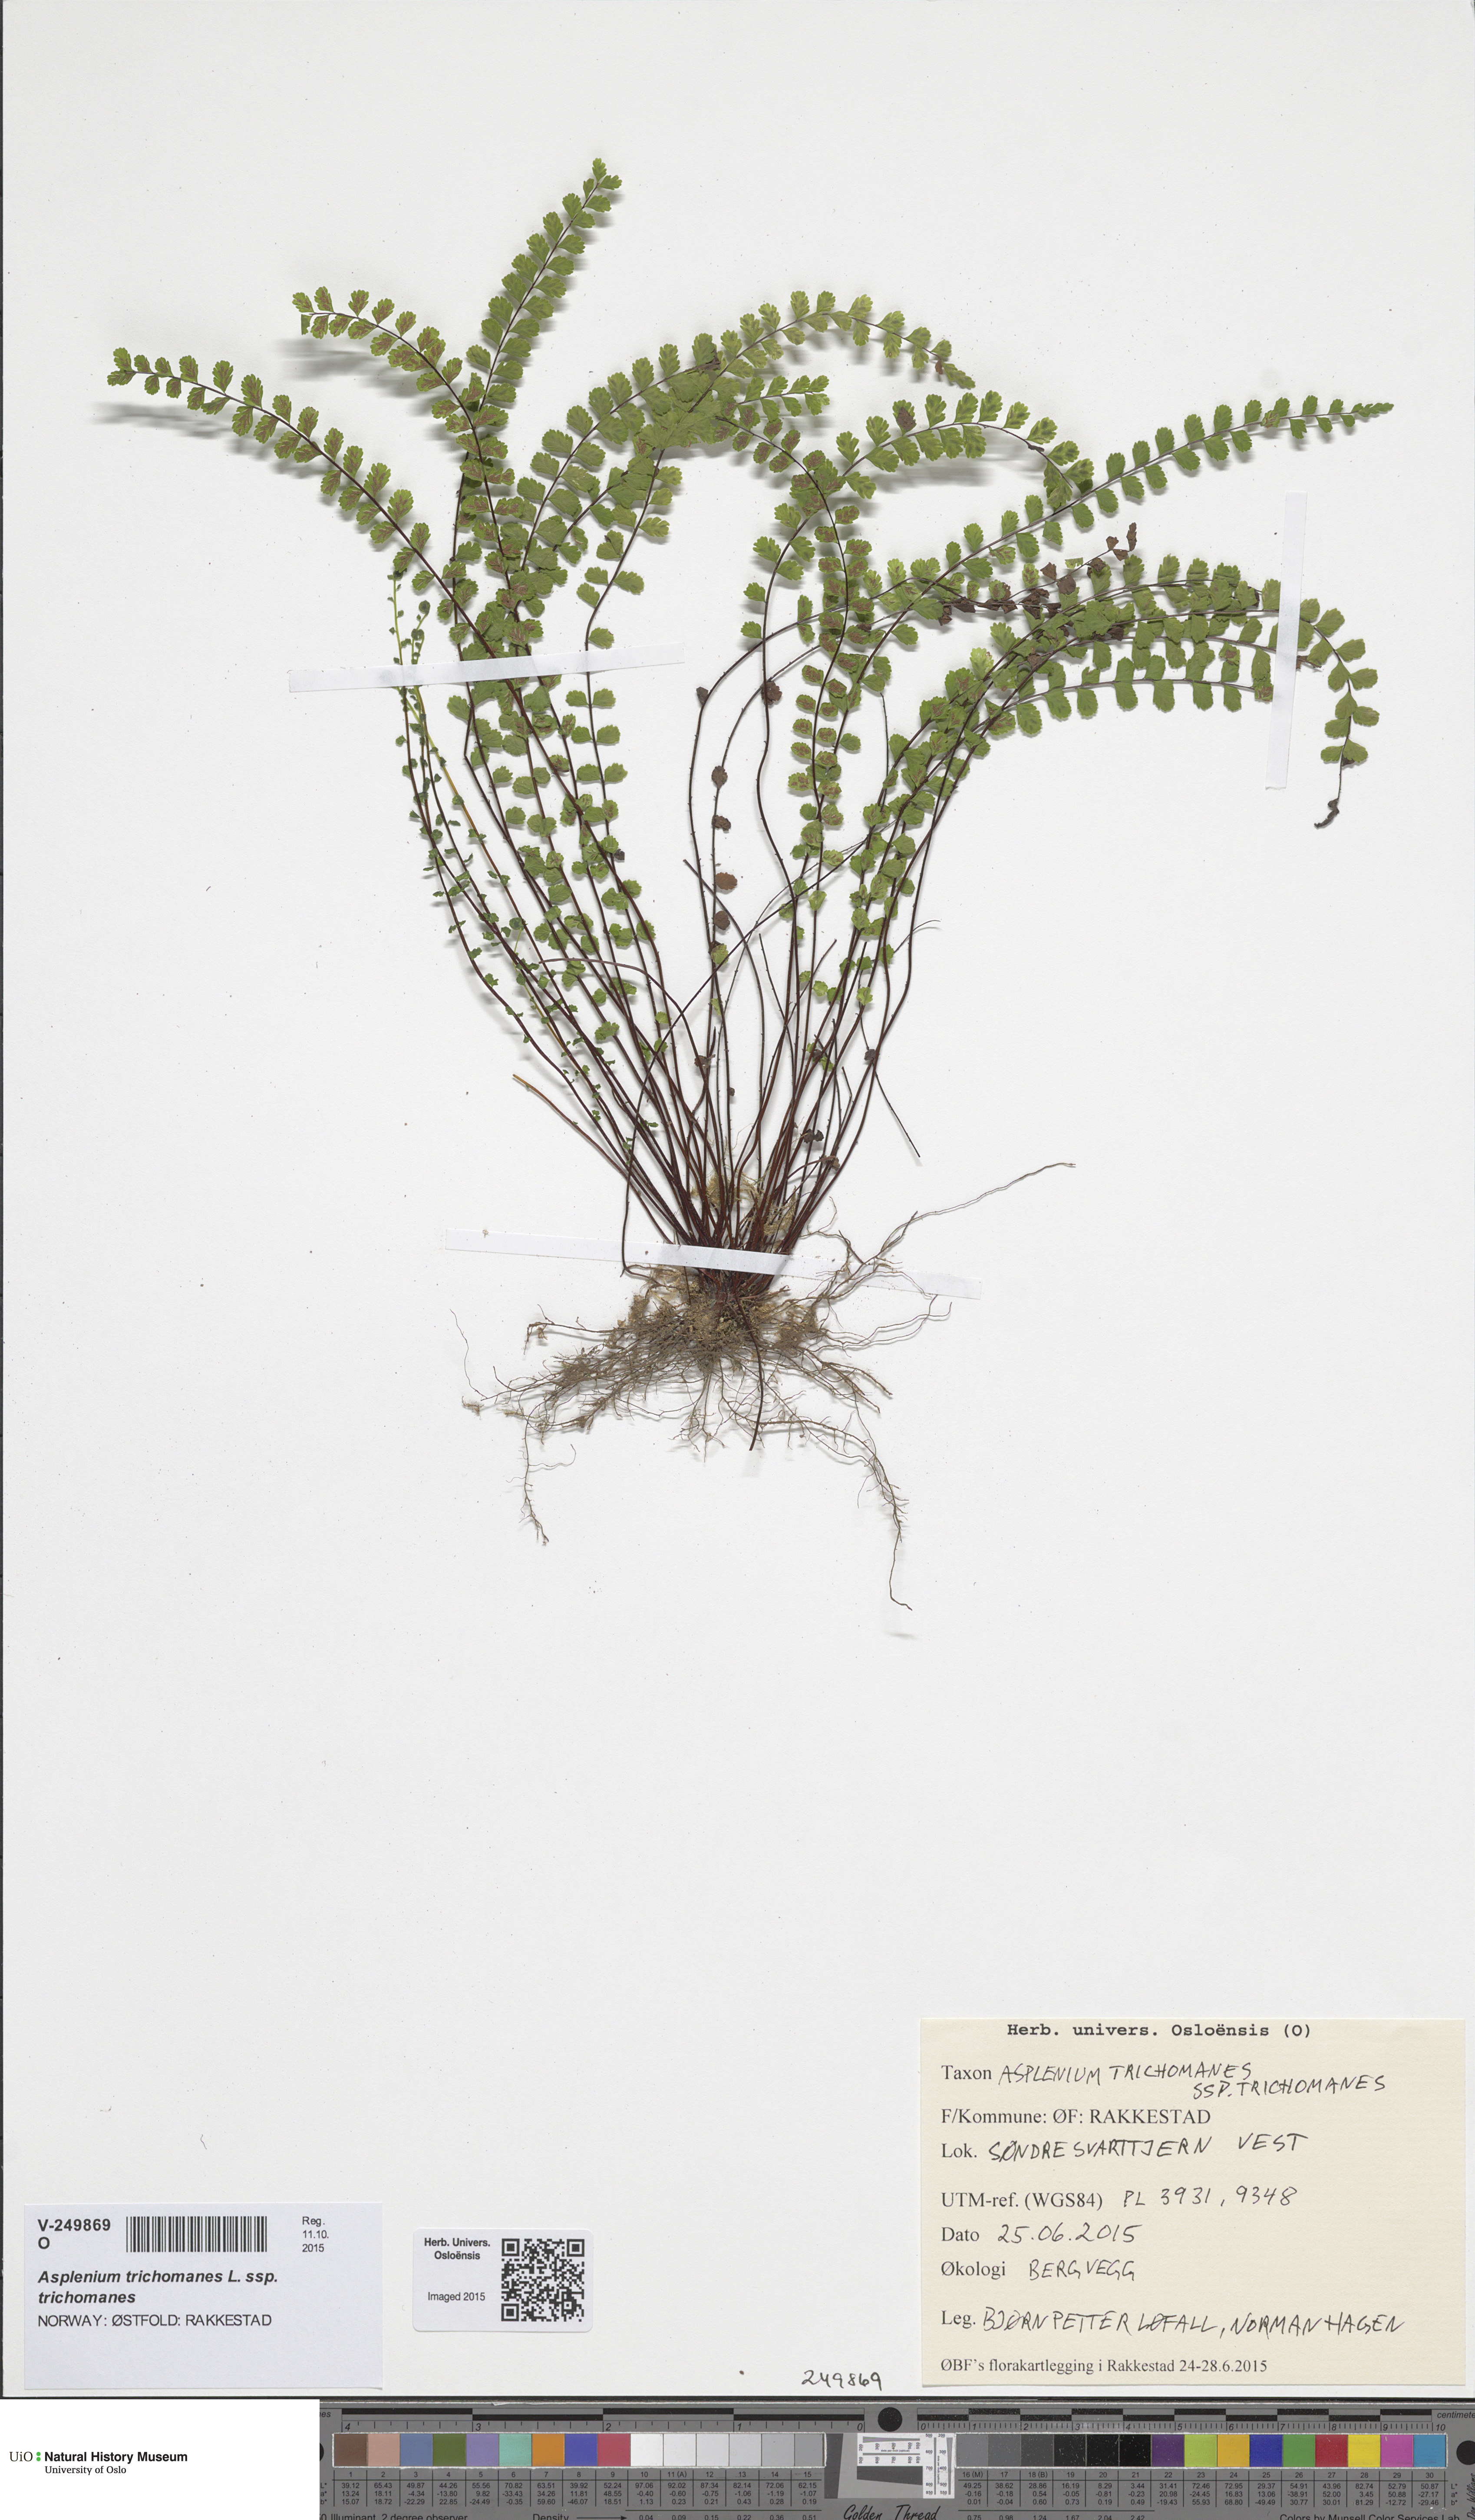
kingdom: Plantae
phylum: Tracheophyta
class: Polypodiopsida
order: Polypodiales
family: Aspleniaceae
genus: Asplenium
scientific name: Asplenium trichomanes
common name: Maidenhair spleenwort
